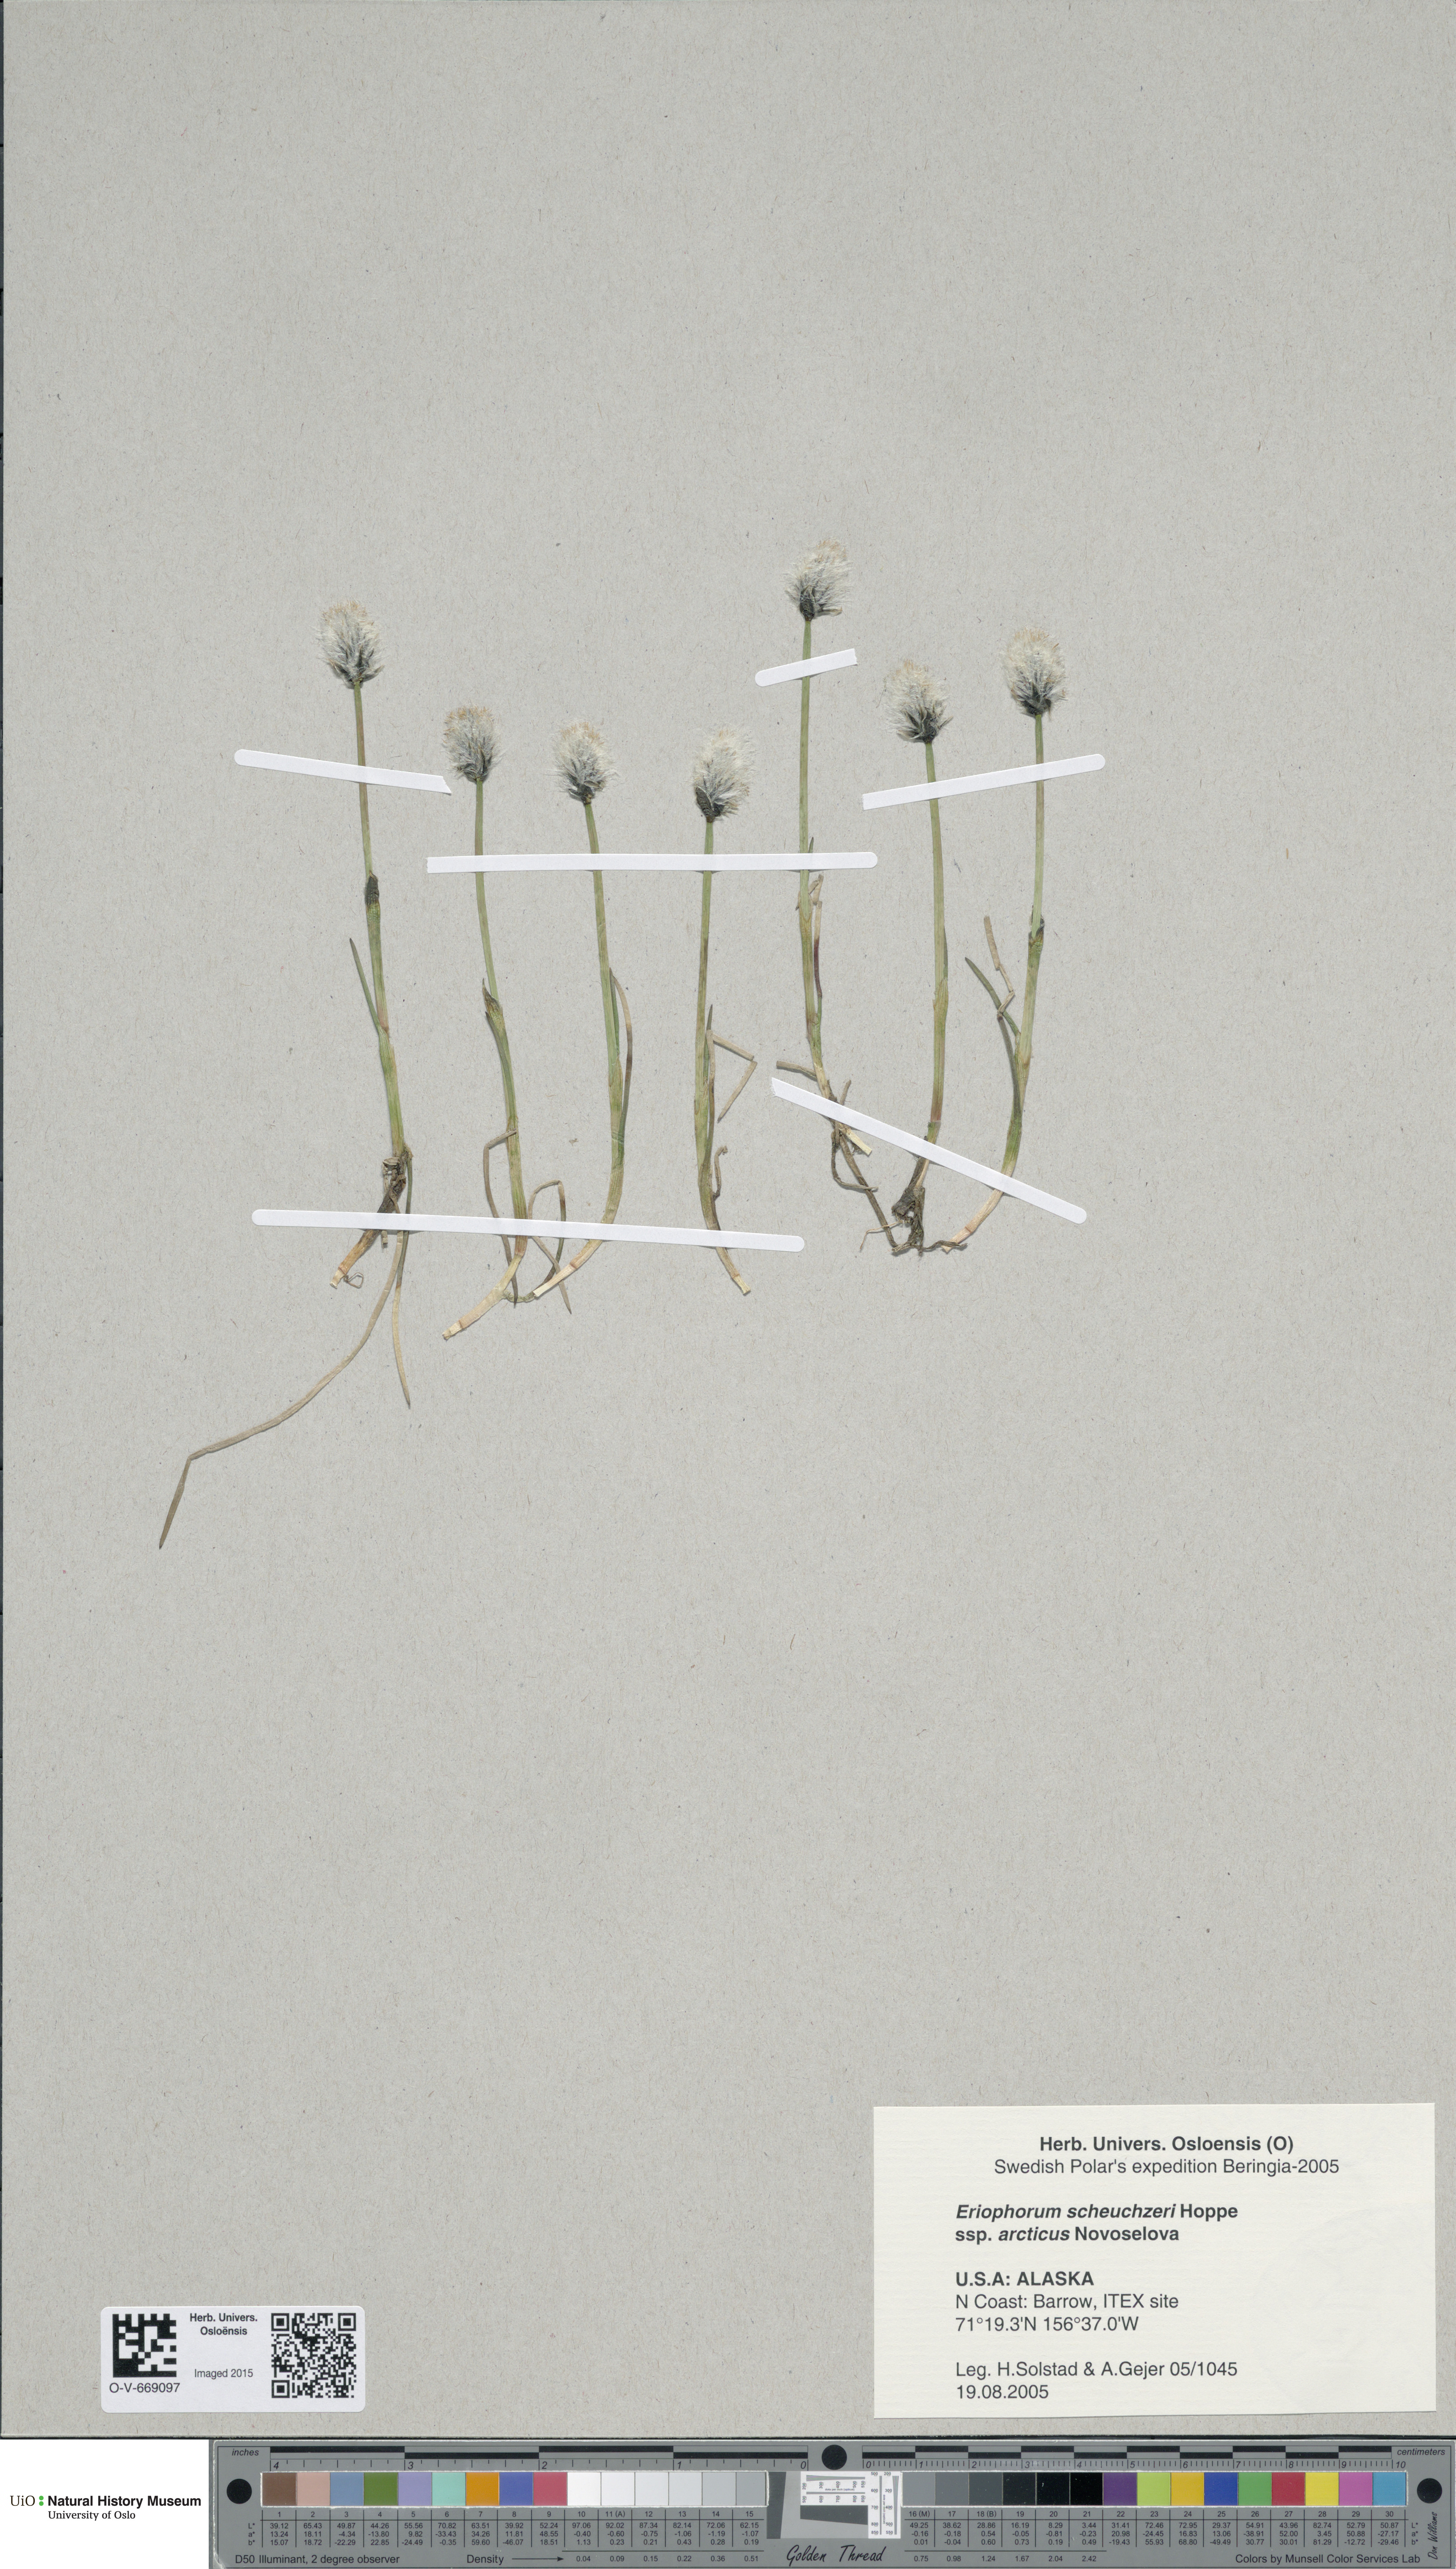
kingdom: Plantae
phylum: Tracheophyta
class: Liliopsida
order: Poales
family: Cyperaceae
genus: Eriophorum
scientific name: Eriophorum scheuchzeri
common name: Scheuchzer's cottongrass
